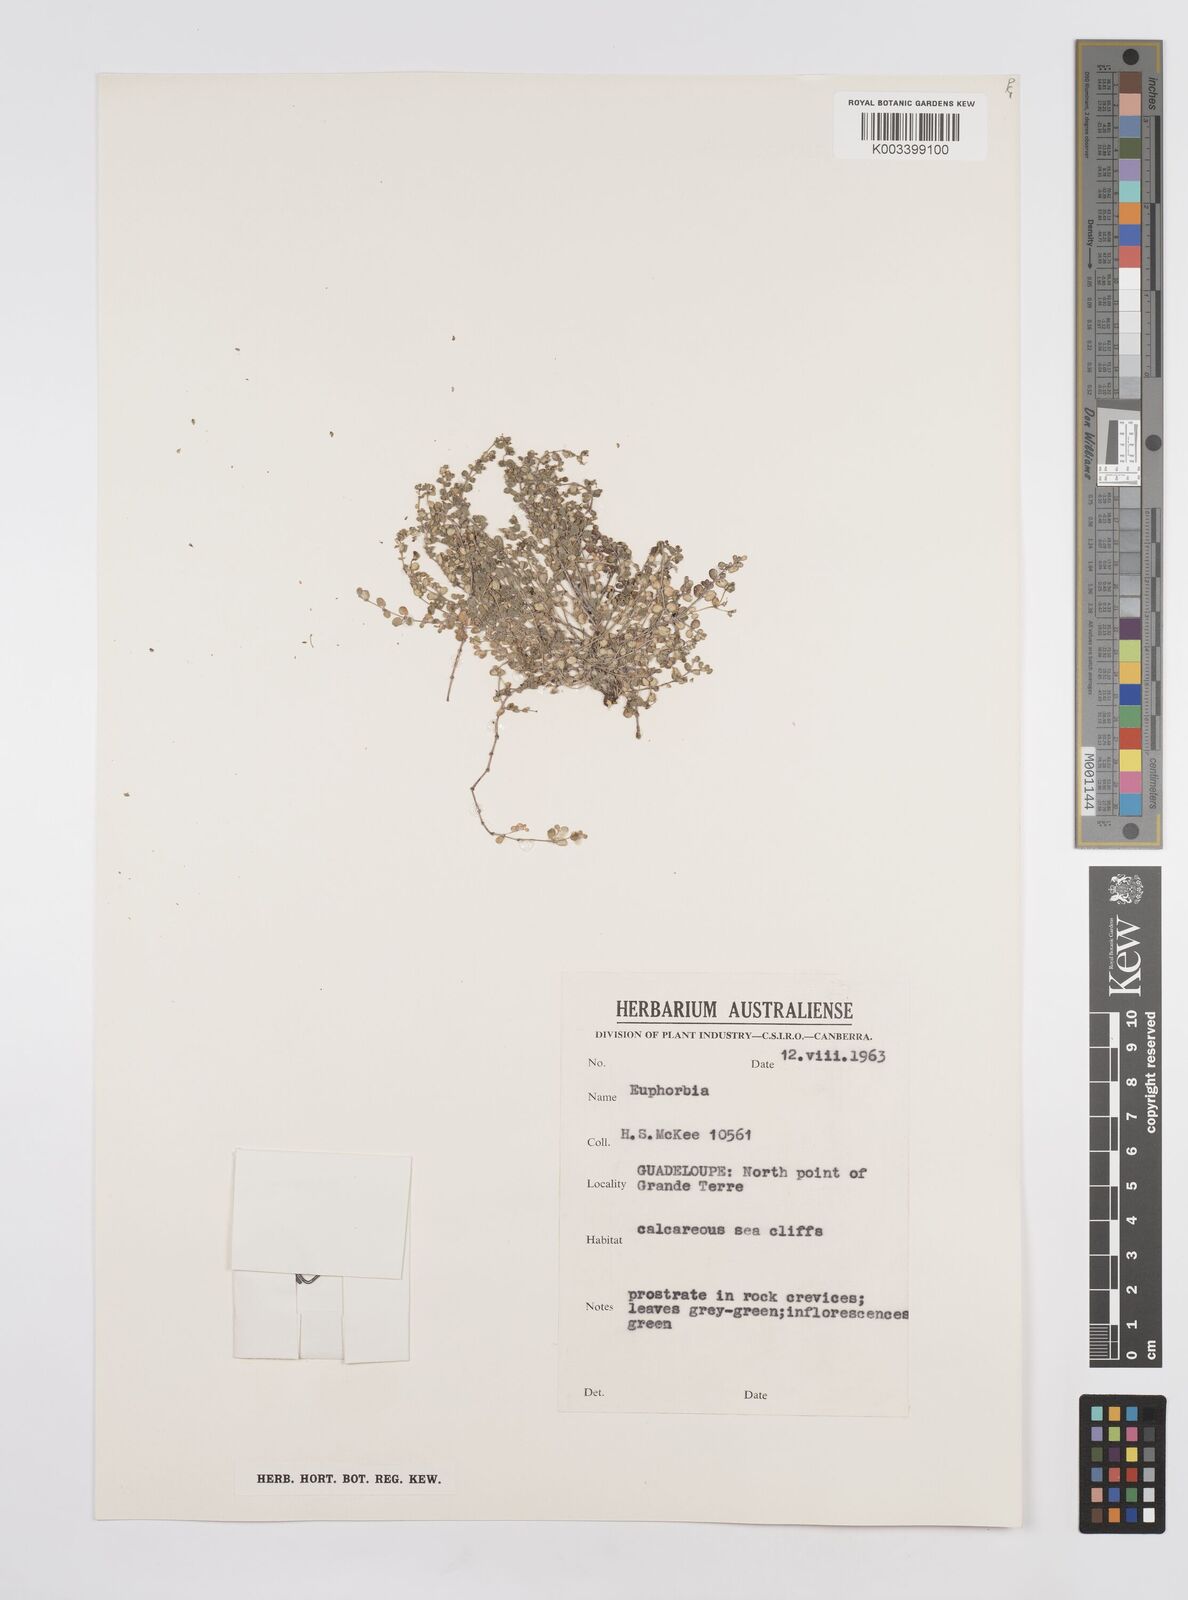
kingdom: Plantae
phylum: Tracheophyta
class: Magnoliopsida
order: Malpighiales
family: Euphorbiaceae
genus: Euphorbia
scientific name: Euphorbia
